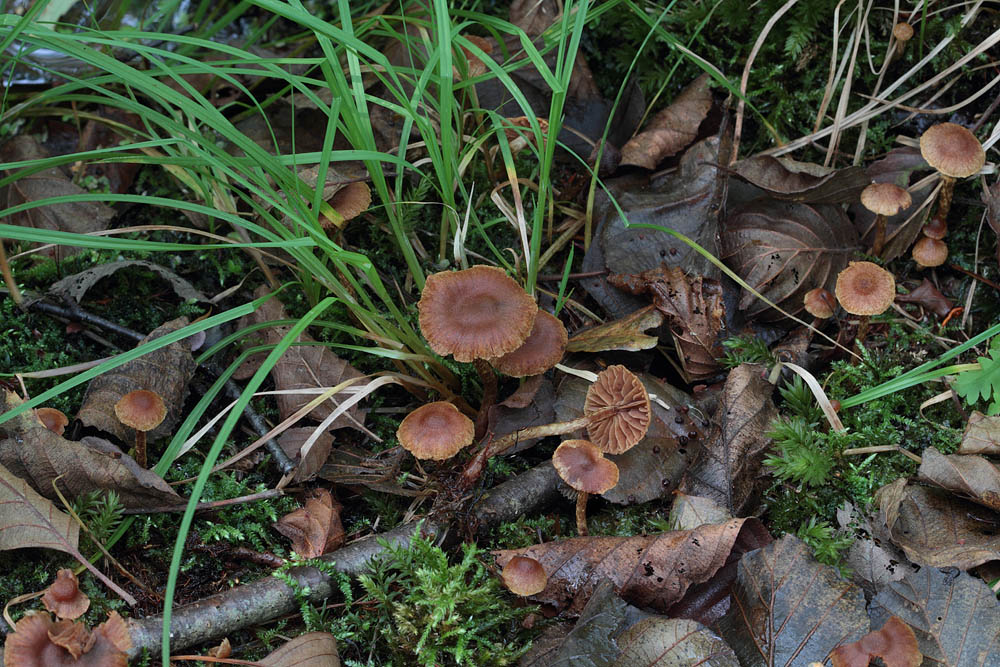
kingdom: Fungi
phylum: Basidiomycota
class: Agaricomycetes
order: Agaricales
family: Cortinariaceae
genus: Cortinarius
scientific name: Cortinarius helvelloides
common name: fjernbladet slørhat
